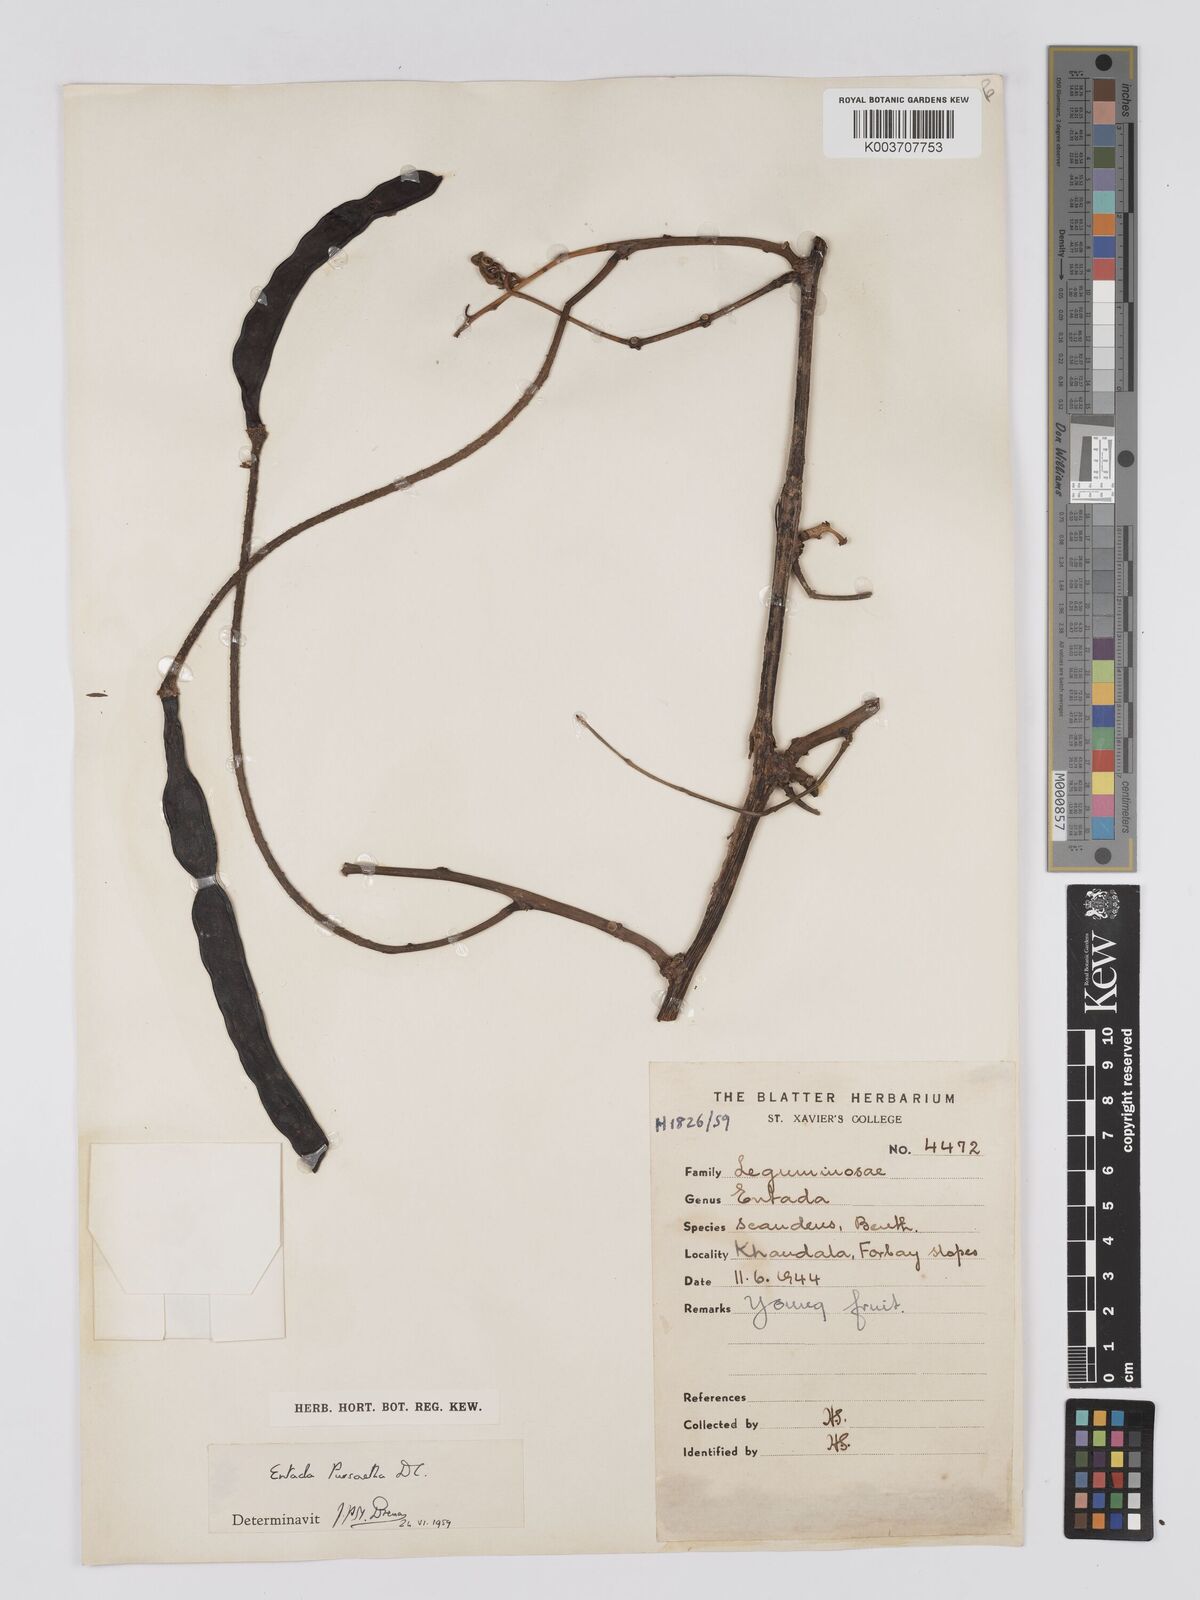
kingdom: Plantae
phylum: Tracheophyta
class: Magnoliopsida
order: Fabales
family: Fabaceae
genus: Entada
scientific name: Entada rheedei
